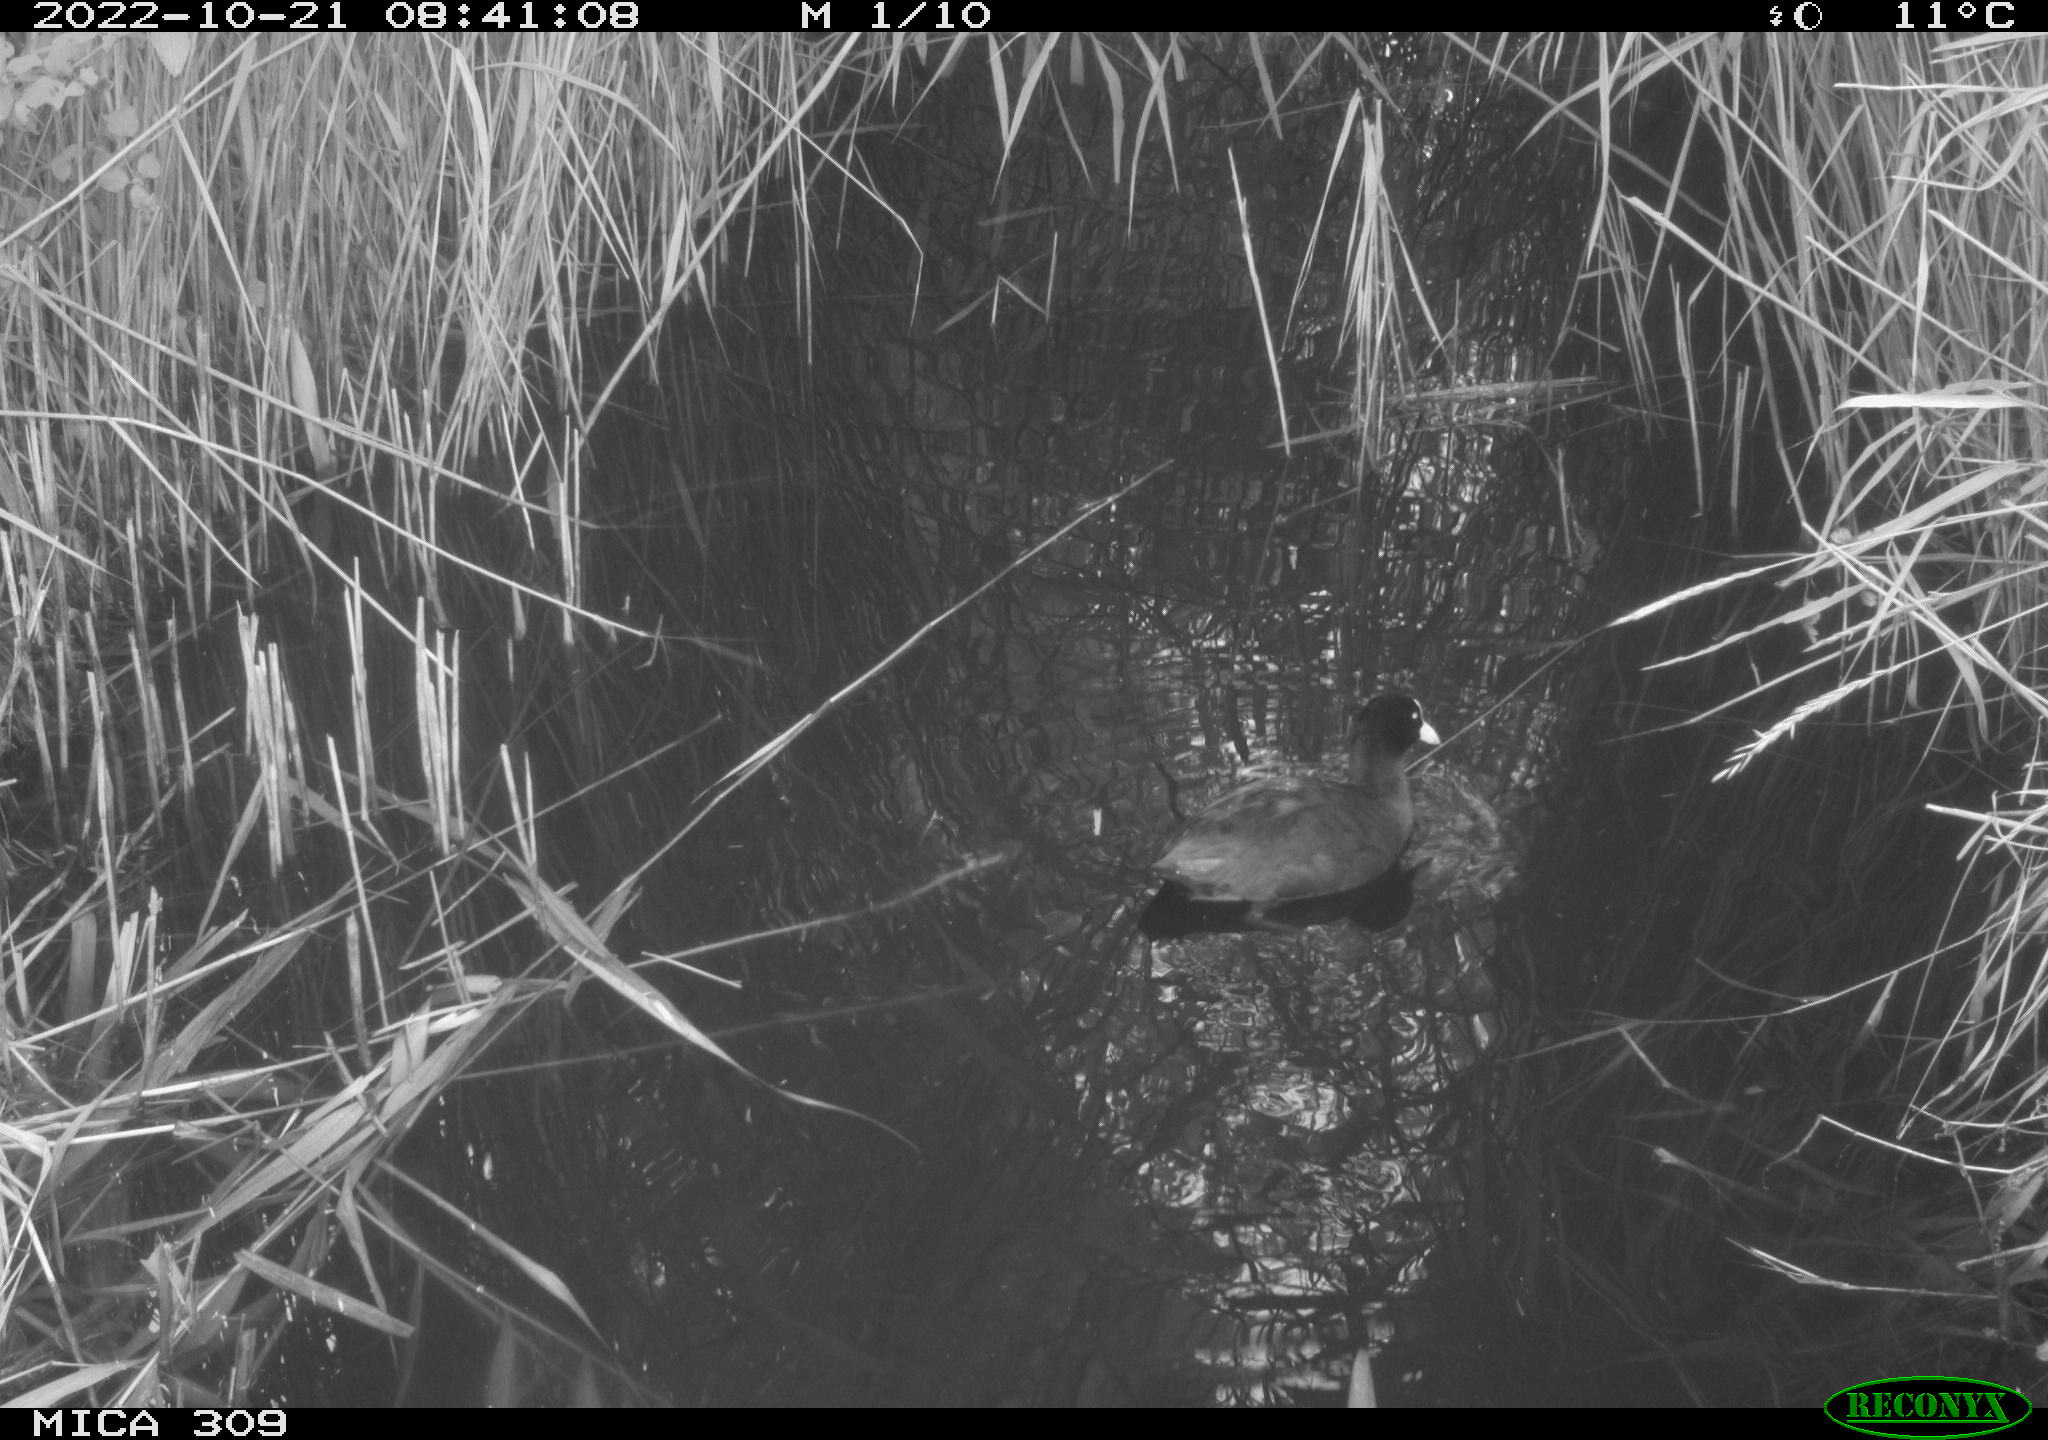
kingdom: Animalia
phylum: Chordata
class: Aves
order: Gruiformes
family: Rallidae
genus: Fulica
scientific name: Fulica atra
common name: Eurasian coot
